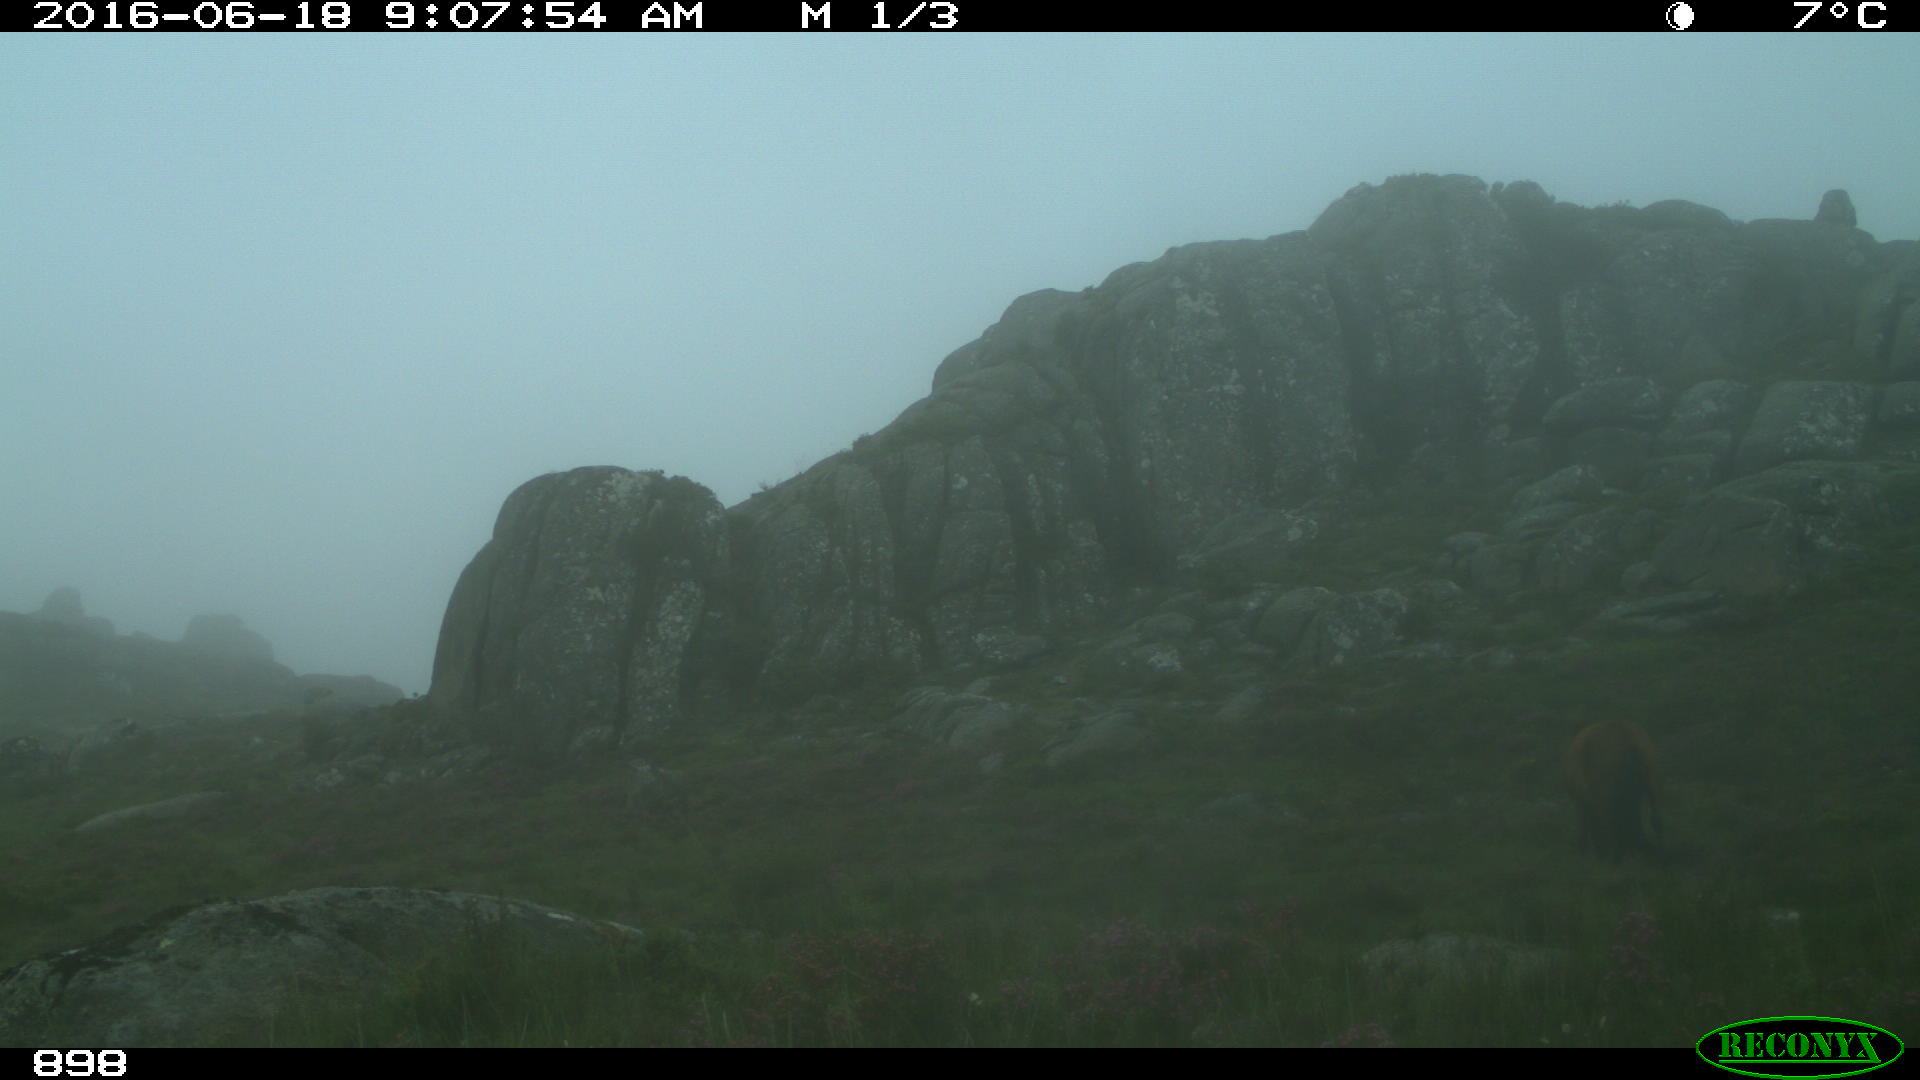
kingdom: Animalia
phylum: Chordata
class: Mammalia
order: Perissodactyla
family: Equidae
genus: Equus
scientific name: Equus caballus
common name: Horse
